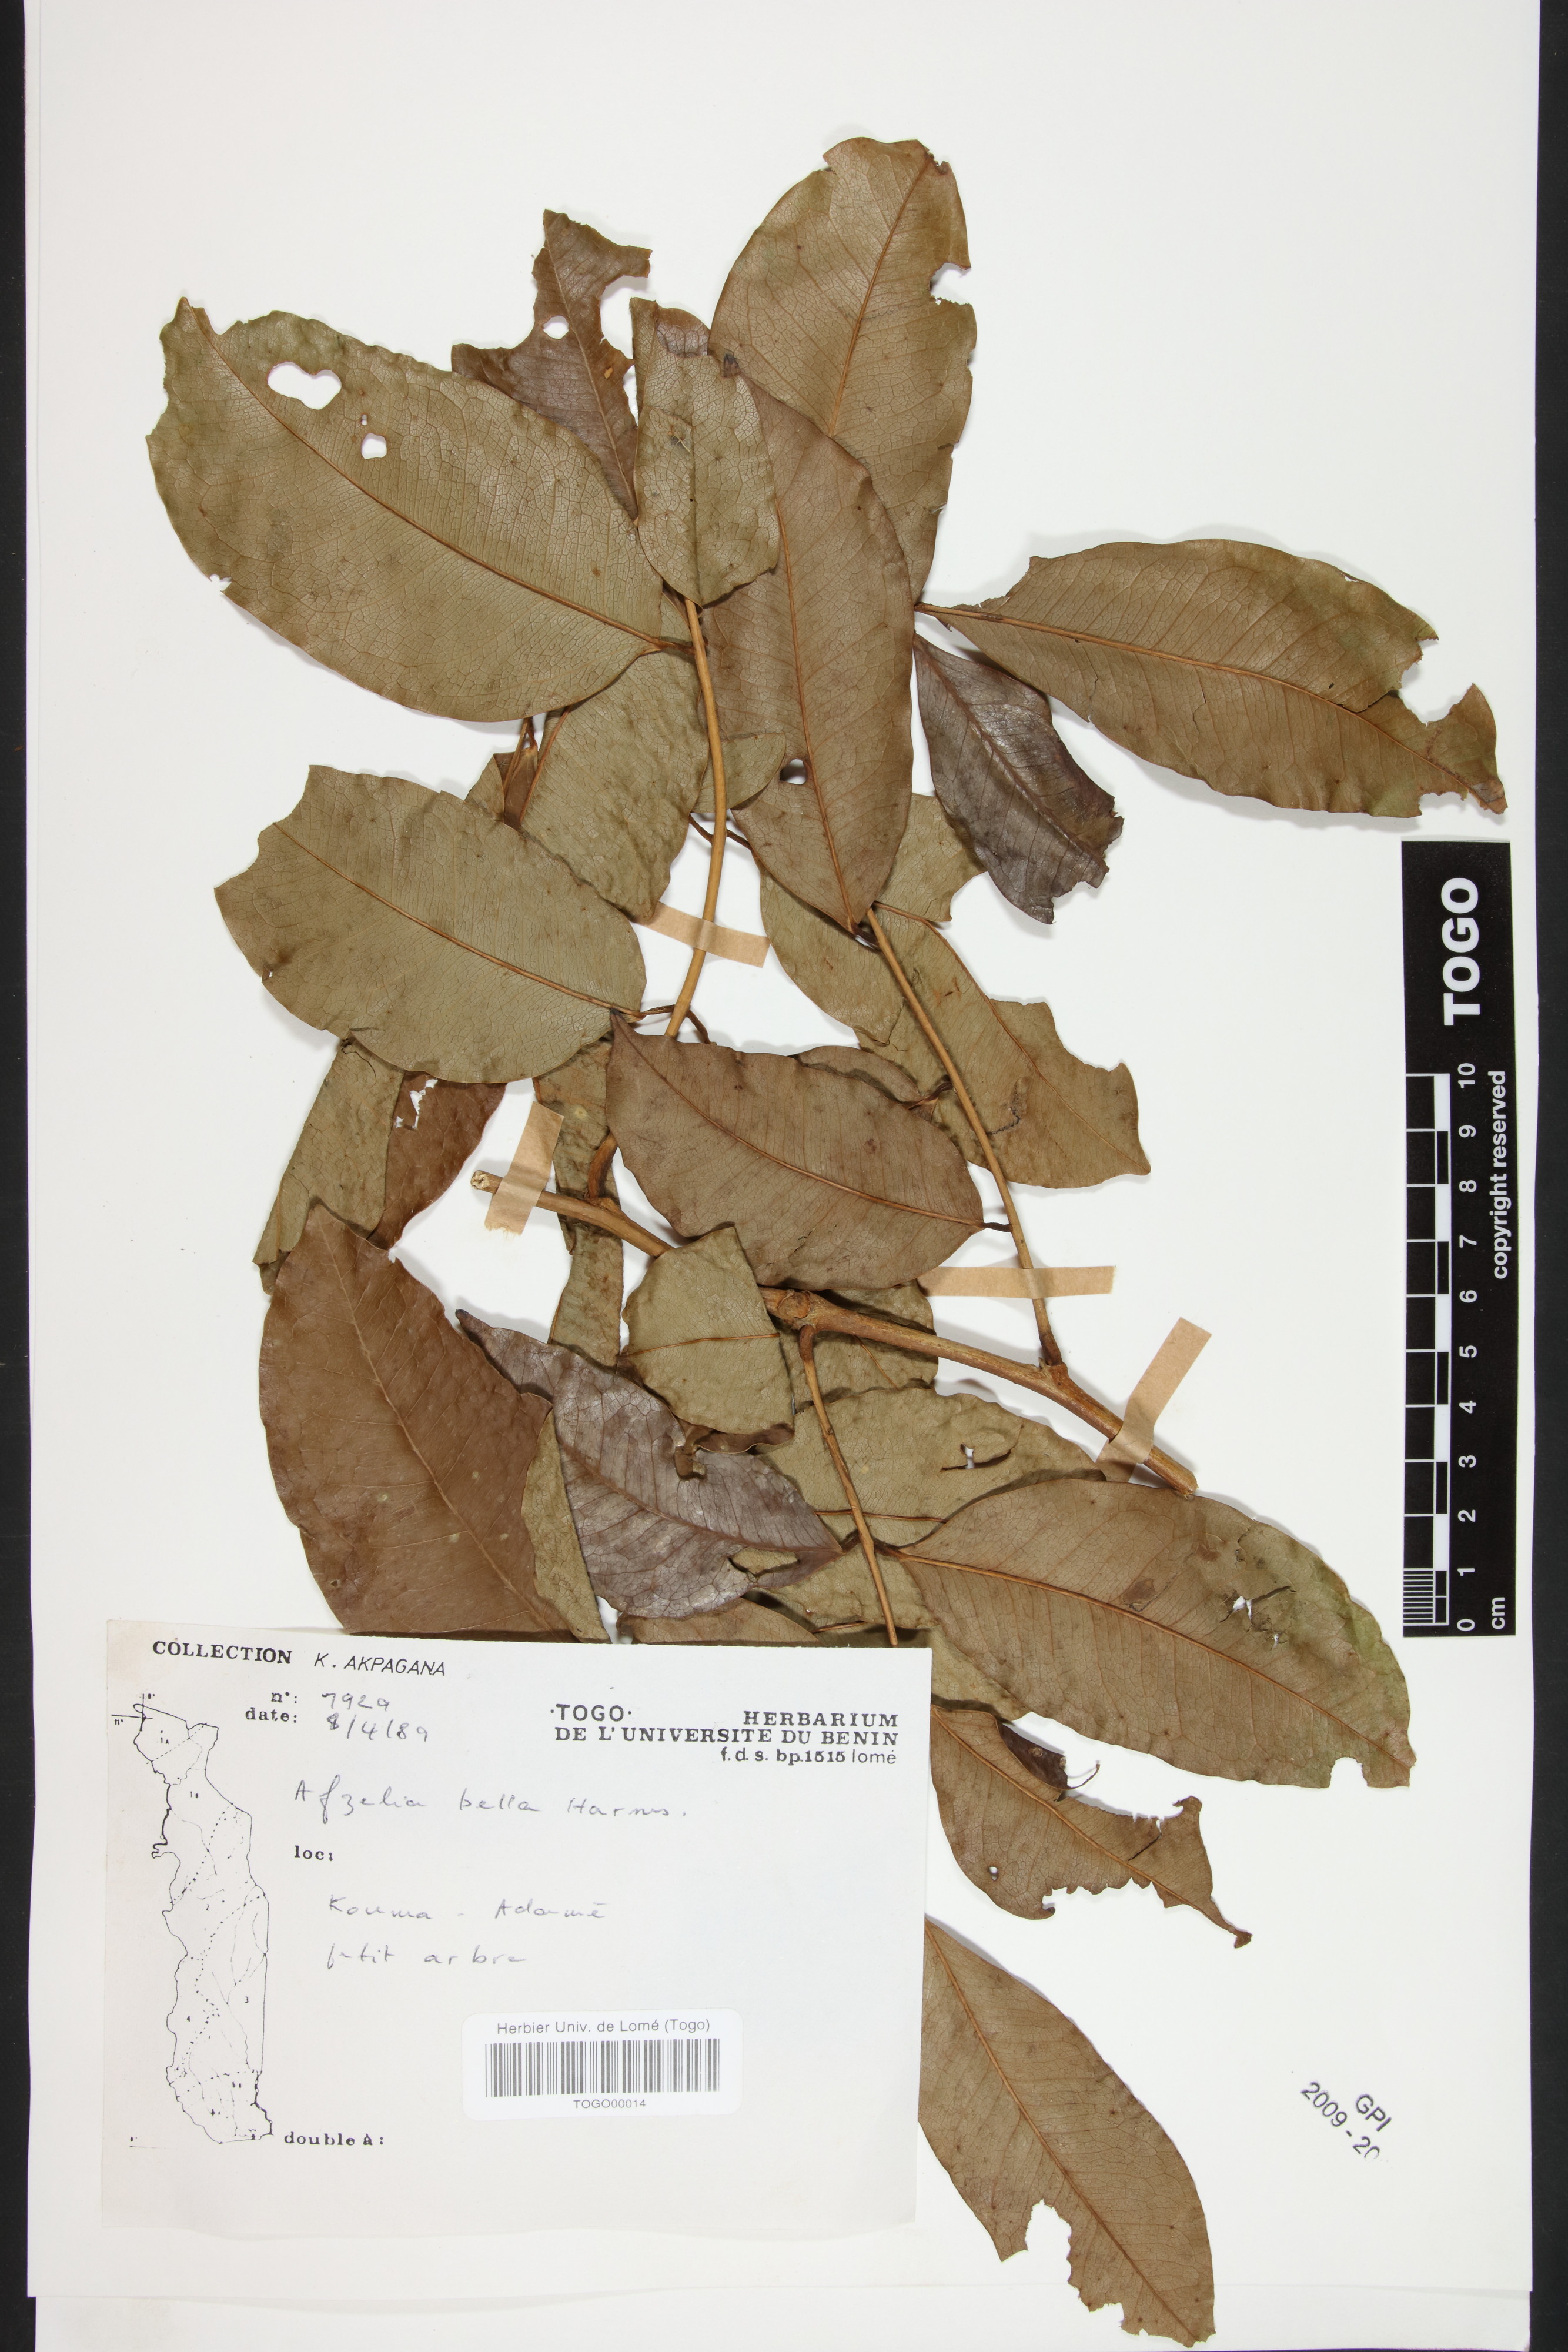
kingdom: Plantae
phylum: Tracheophyta
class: Magnoliopsida
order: Fabales
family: Fabaceae
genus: Afzelia
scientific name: Afzelia bella
